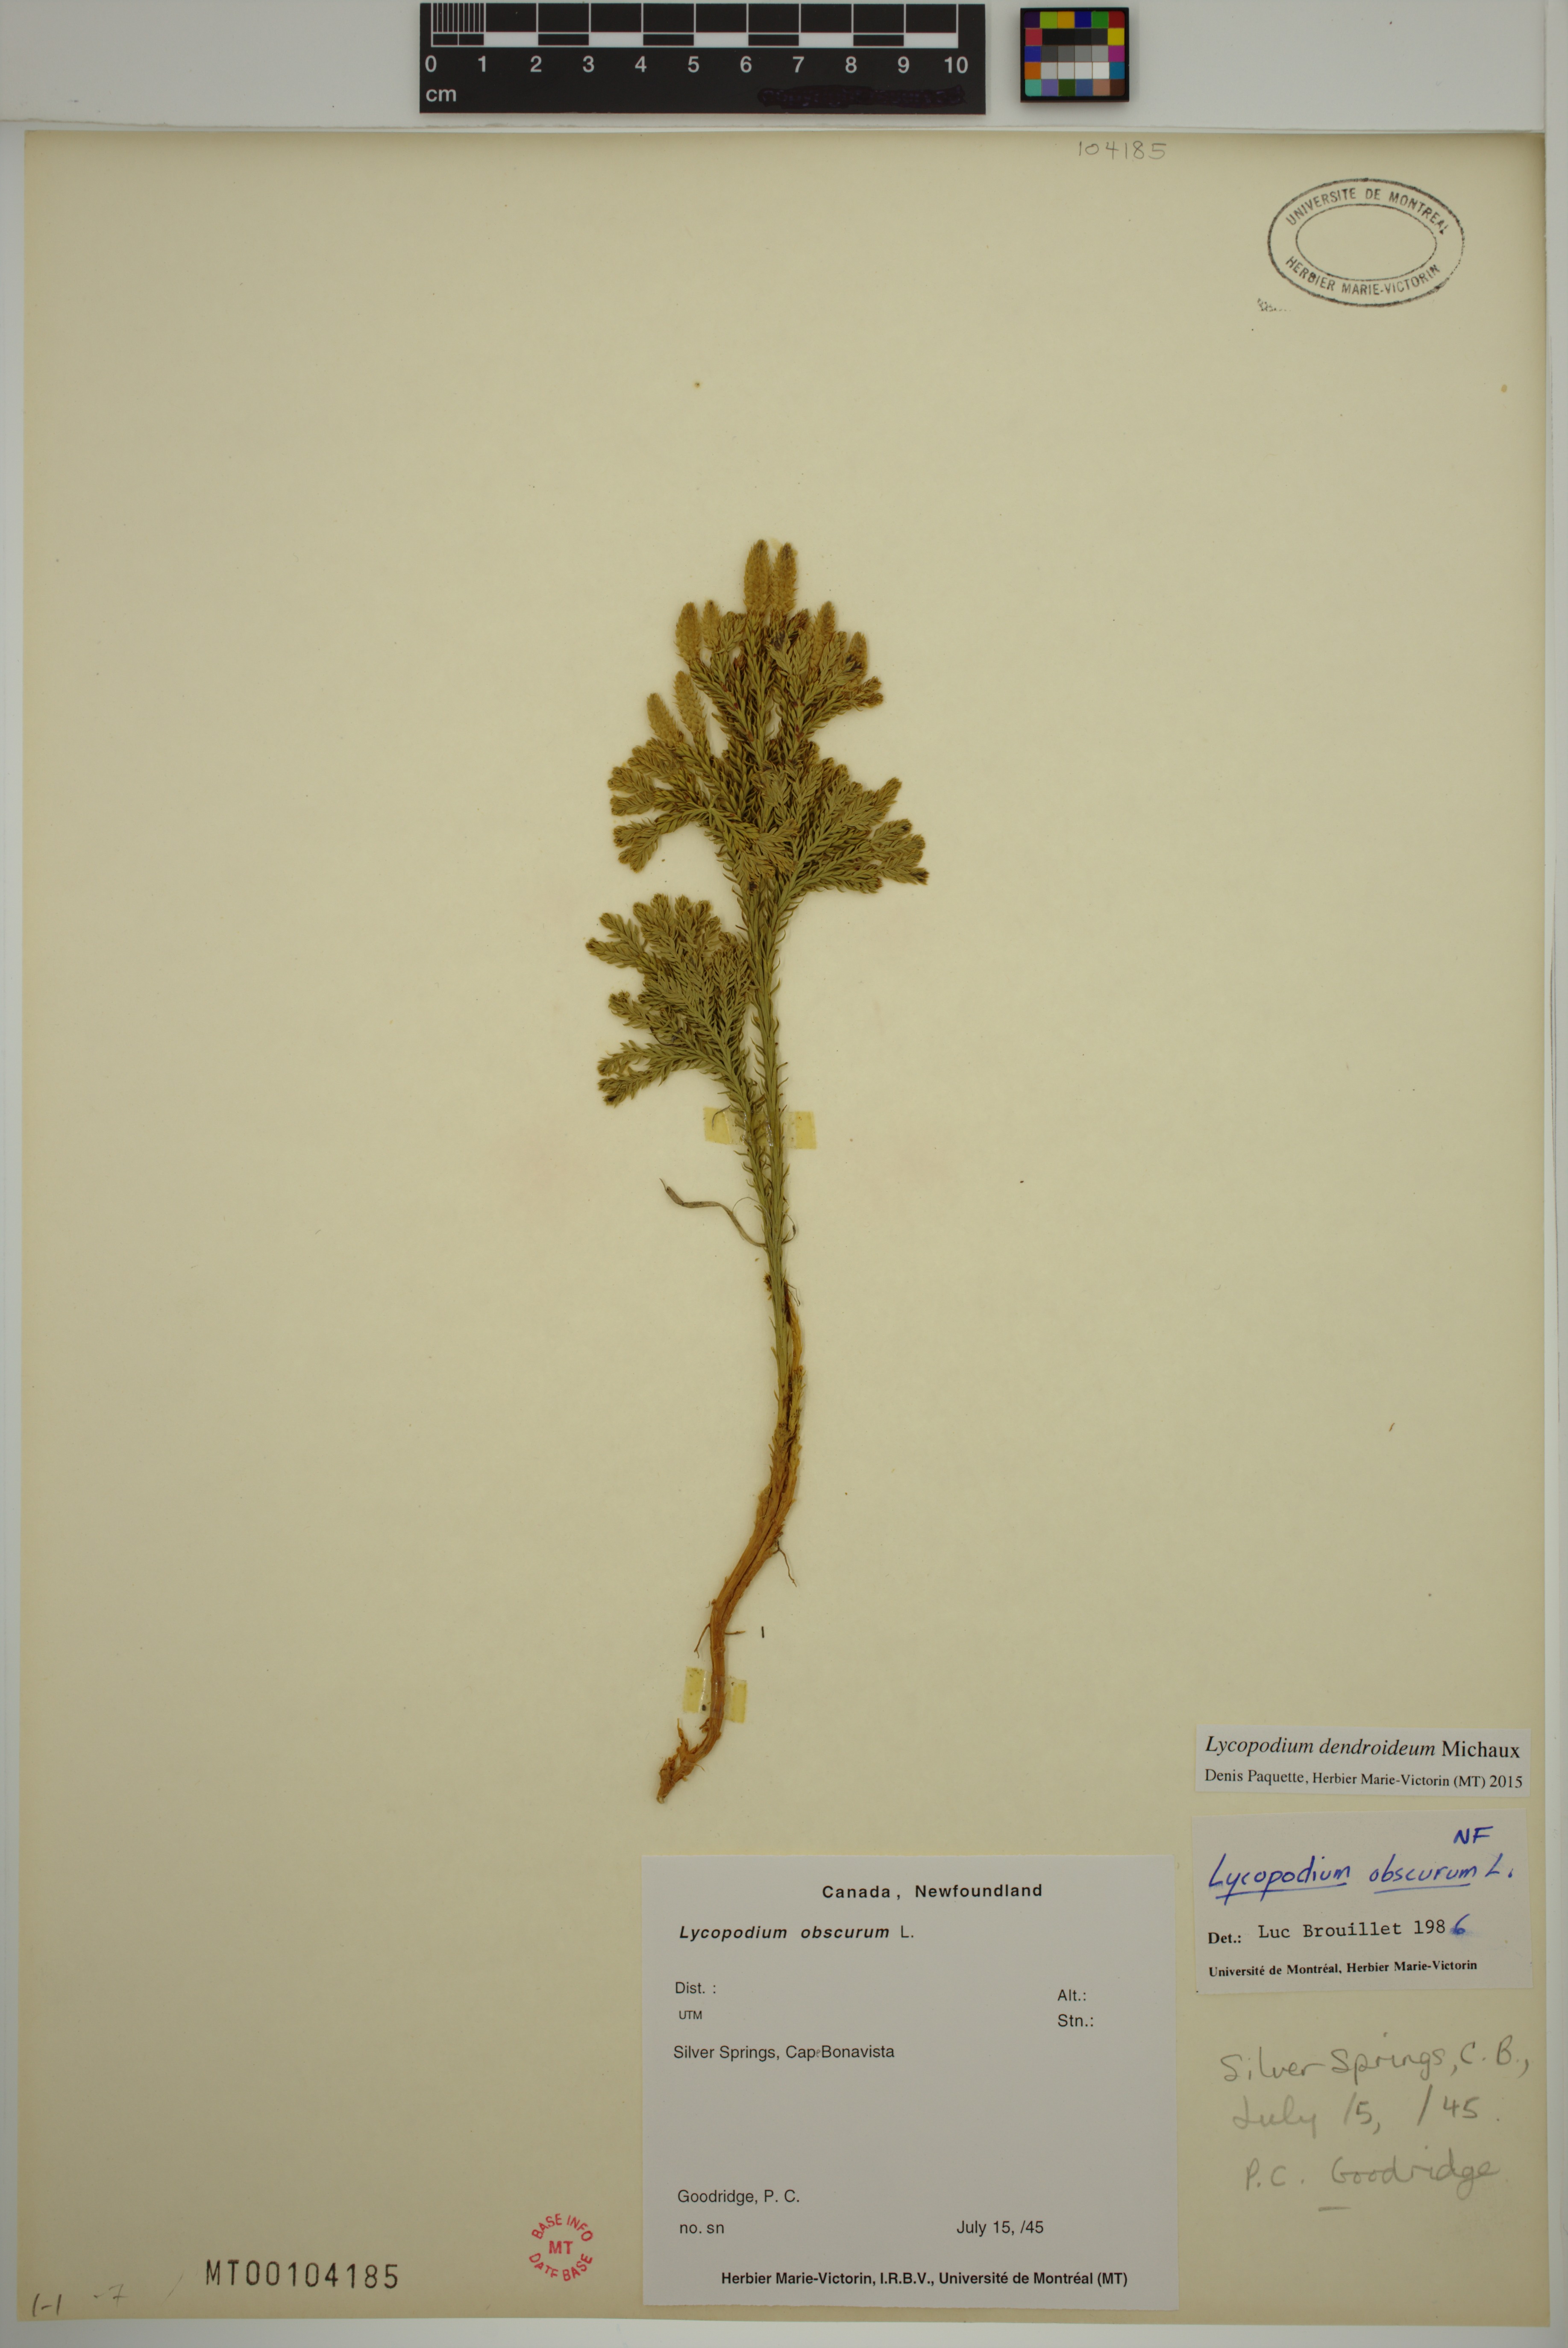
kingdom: Plantae
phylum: Tracheophyta
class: Lycopodiopsida
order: Lycopodiales
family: Lycopodiaceae
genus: Dendrolycopodium
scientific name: Dendrolycopodium dendroideum
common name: Northern tree-clubmoss
